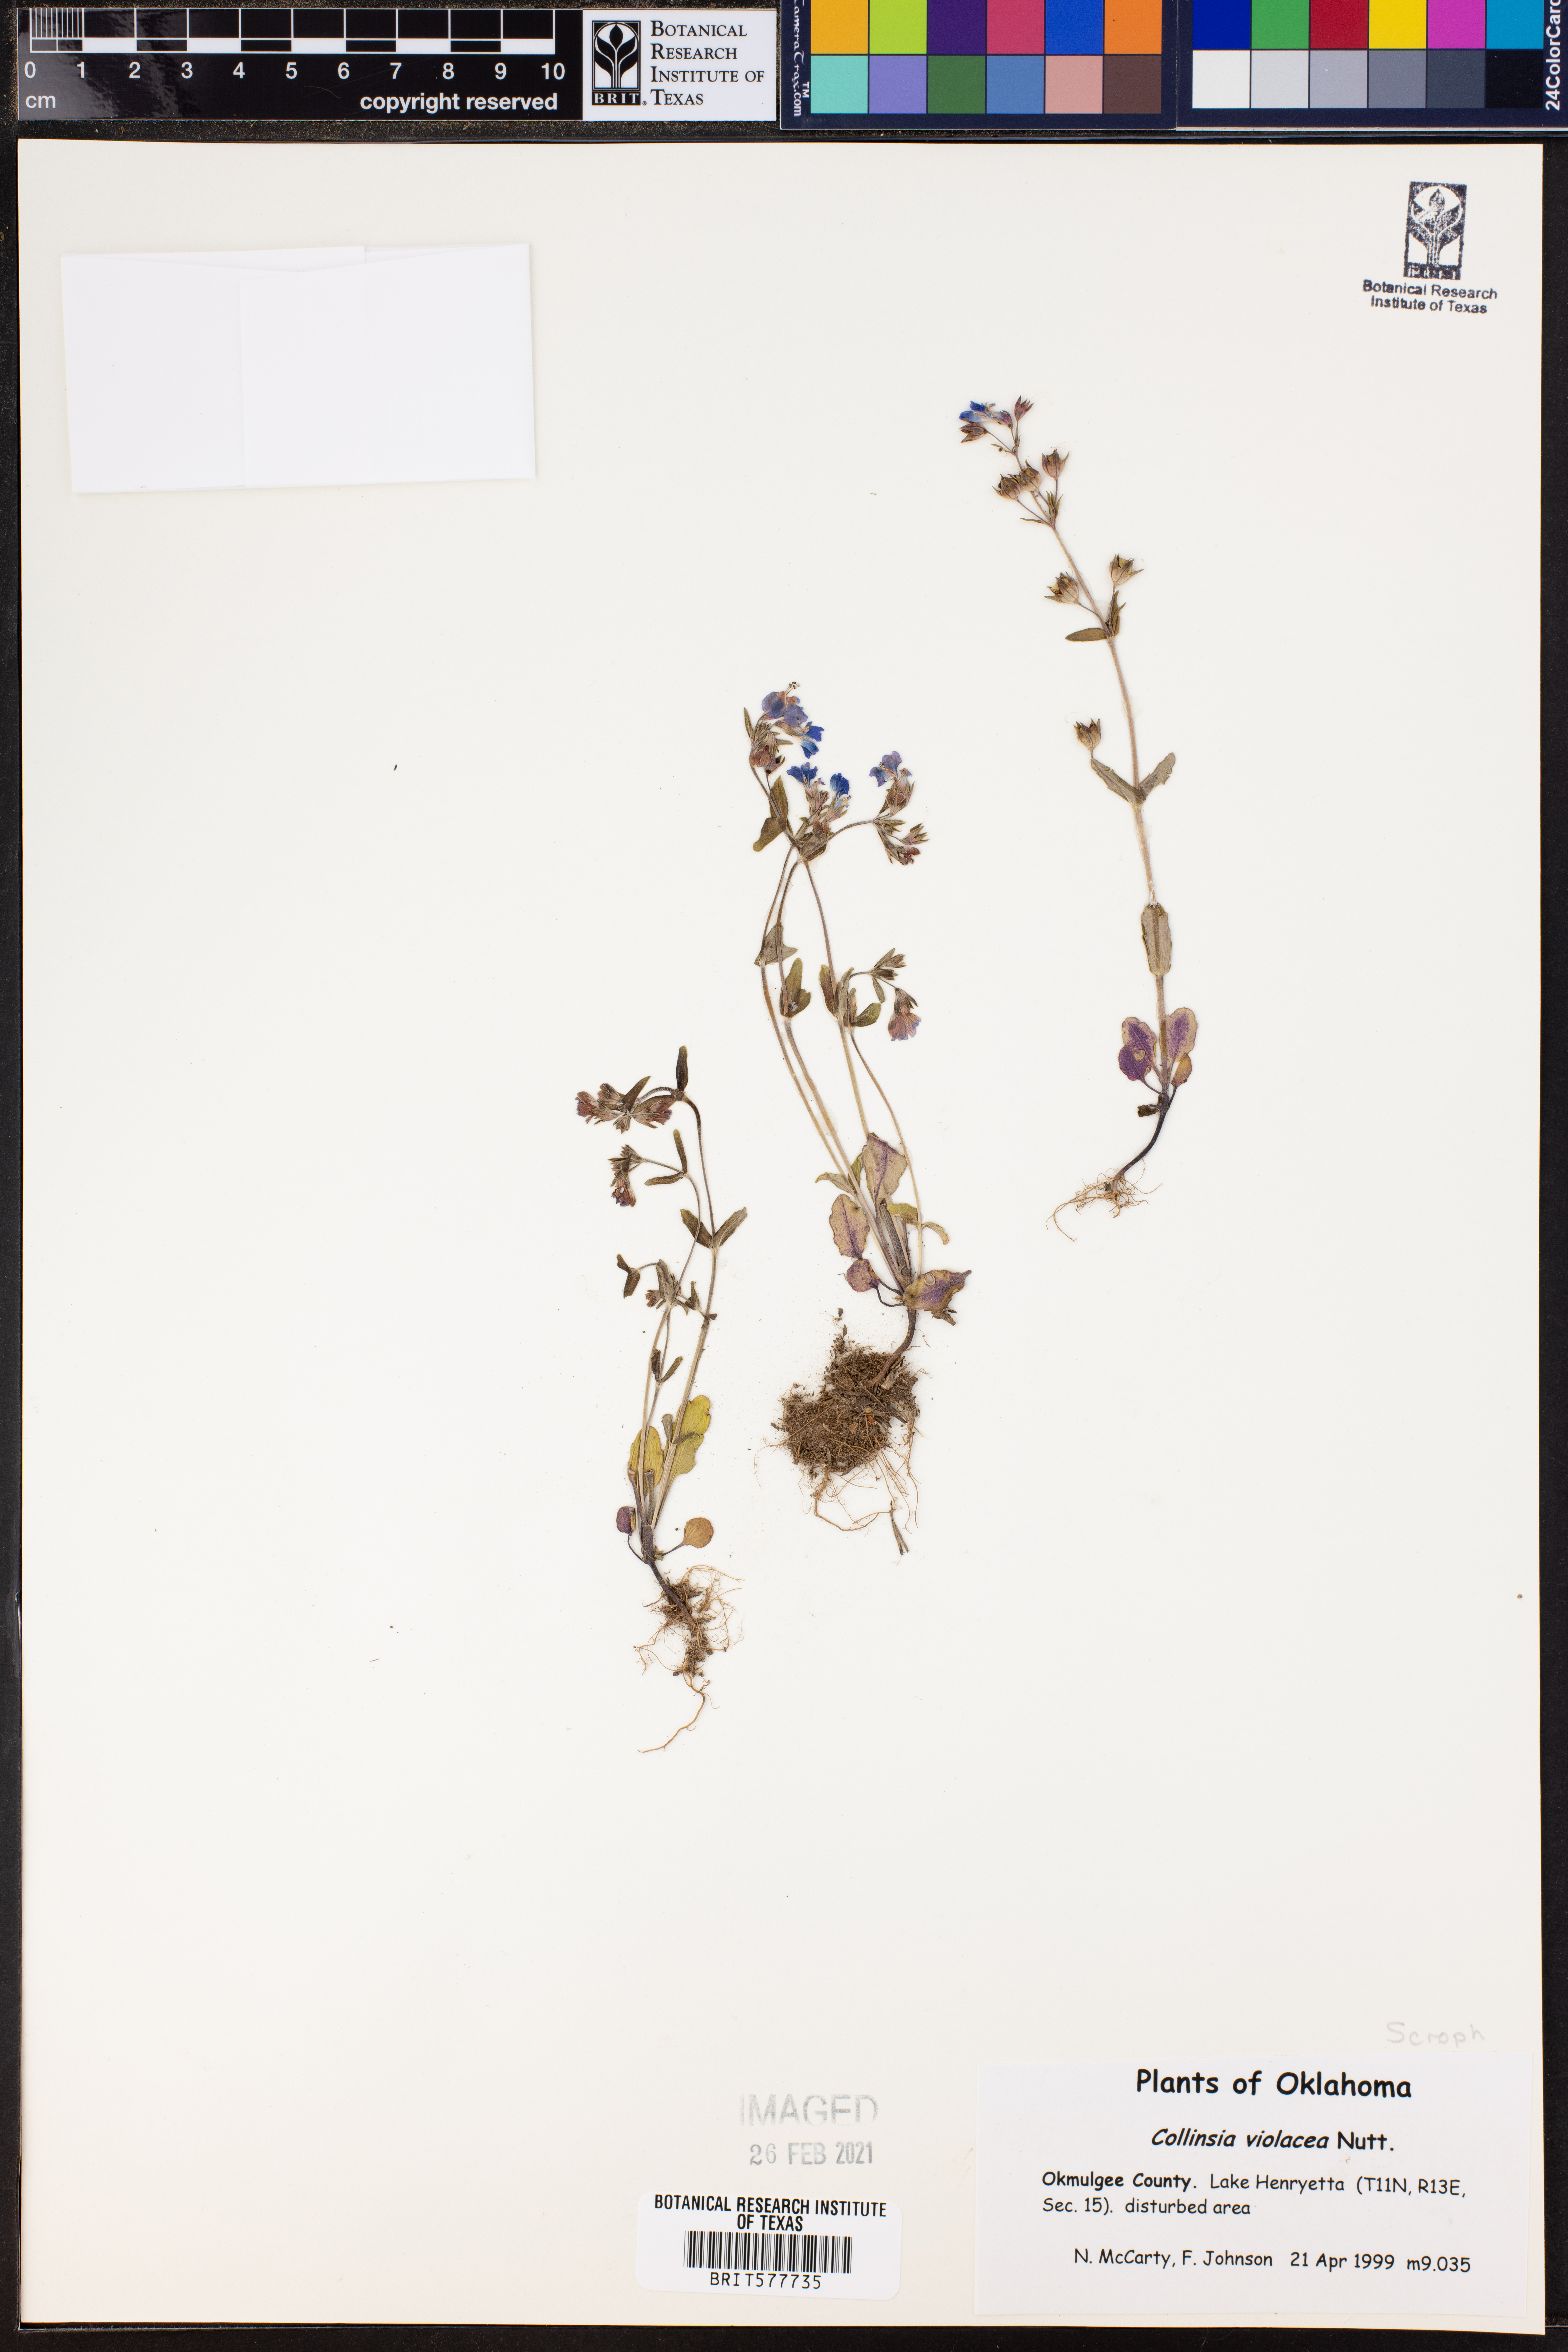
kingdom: Plantae
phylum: Tracheophyta
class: Magnoliopsida
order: Lamiales
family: Plantaginaceae
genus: Collinsia
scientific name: Collinsia violacea
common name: Violet collinsia
